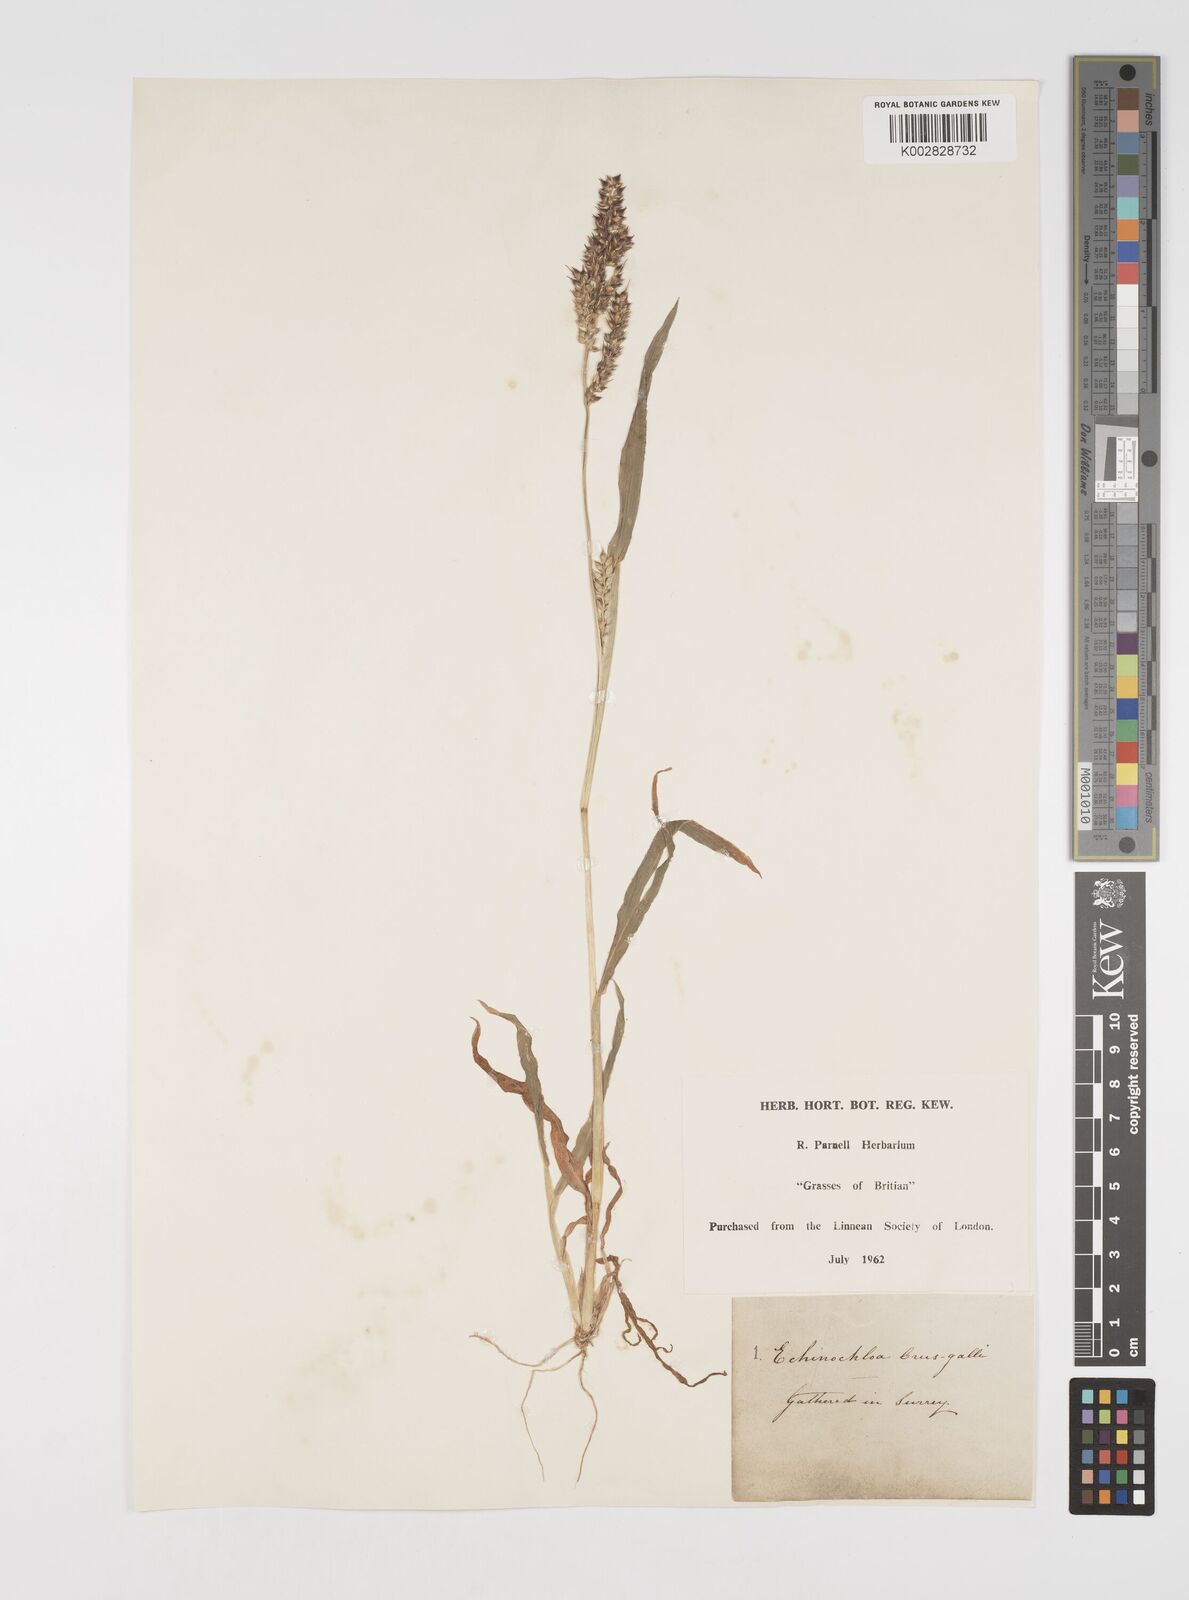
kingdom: Plantae
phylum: Tracheophyta
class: Liliopsida
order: Poales
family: Poaceae
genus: Echinochloa
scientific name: Echinochloa crus-galli
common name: Cockspur
